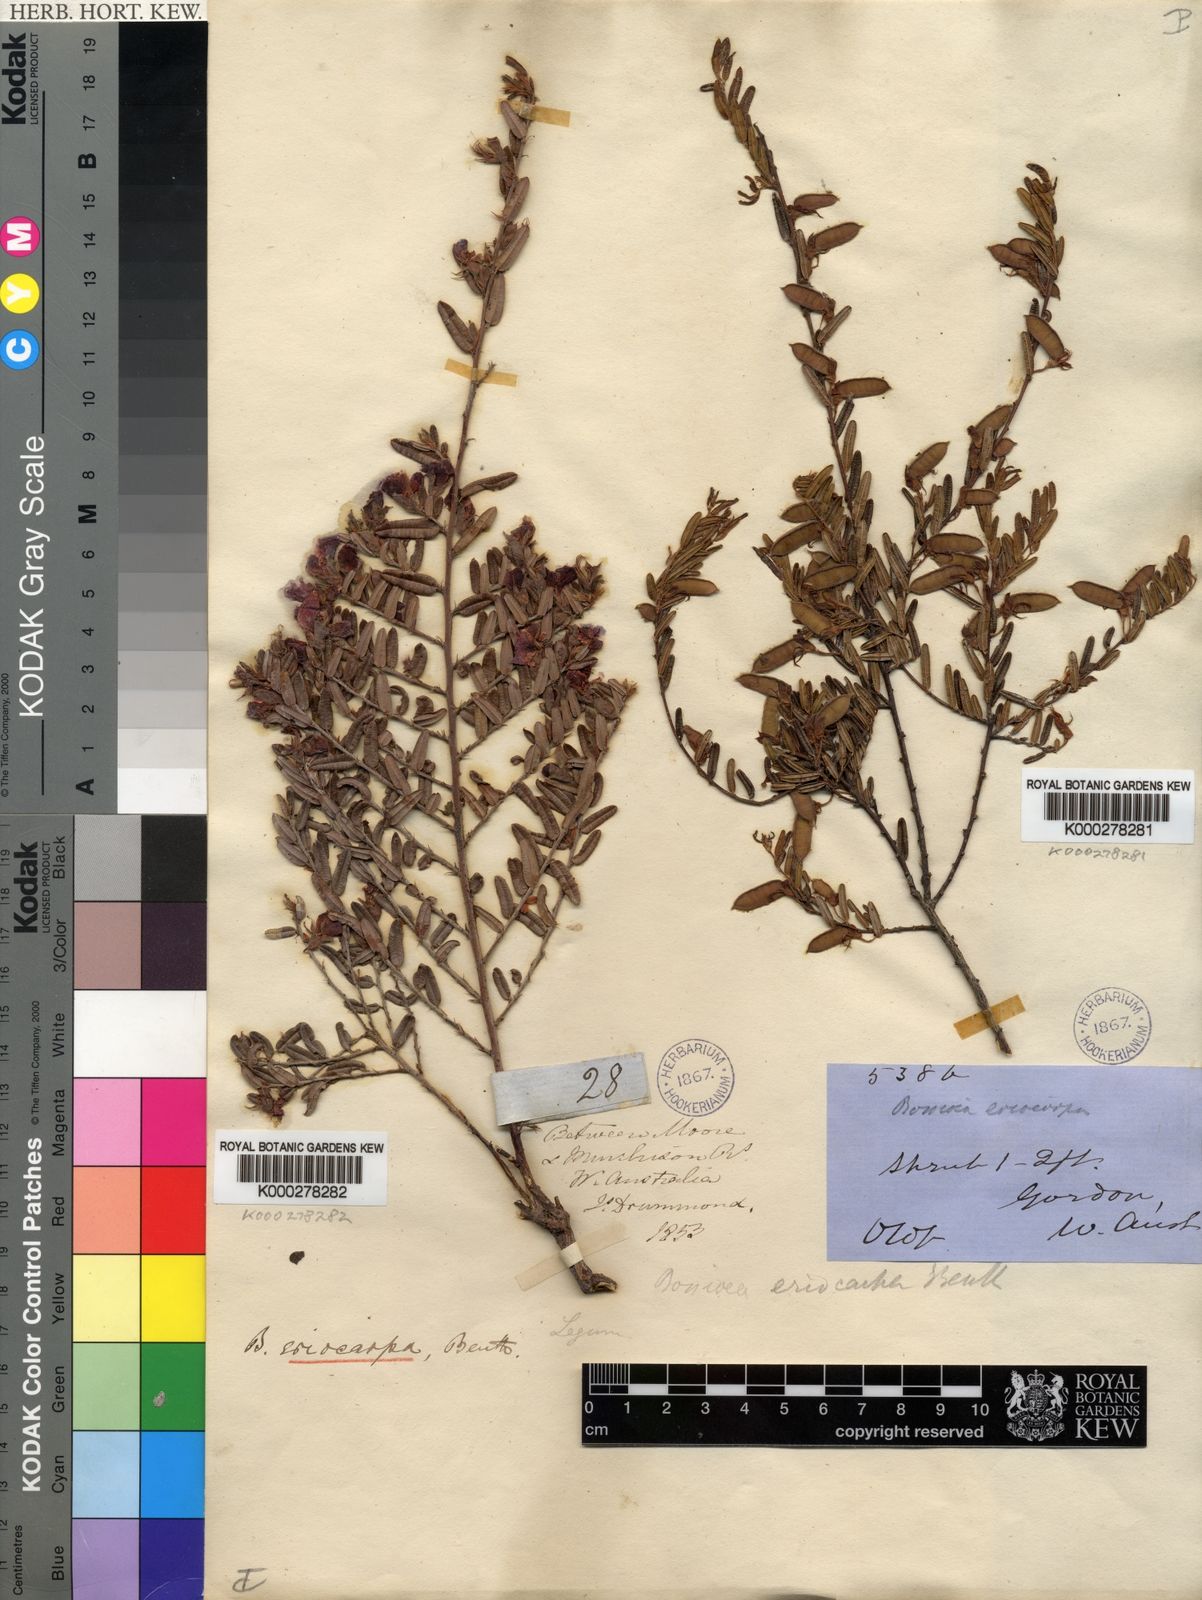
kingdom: Plantae
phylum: Tracheophyta
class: Magnoliopsida
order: Fabales
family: Fabaceae
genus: Bossiaea
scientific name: Bossiaea eriocarpa
